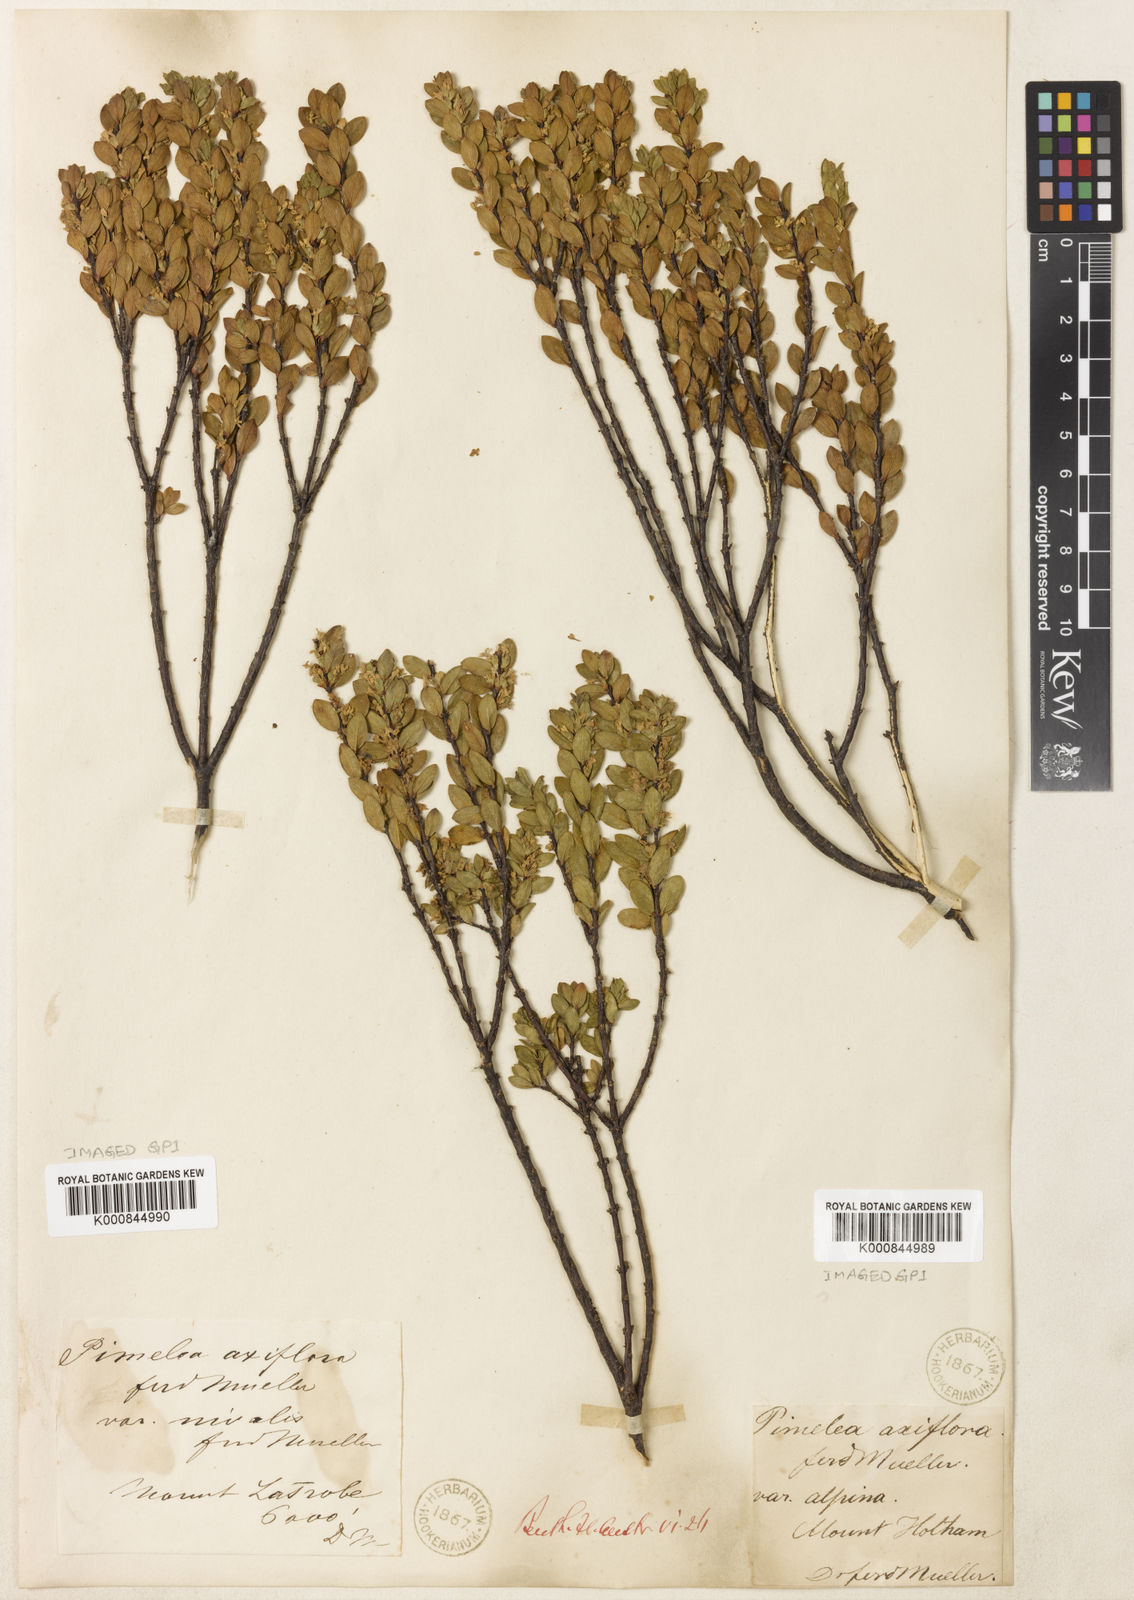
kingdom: Plantae
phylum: Tracheophyta
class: Magnoliopsida
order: Malvales
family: Thymelaeaceae
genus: Pimelea
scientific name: Pimelea
